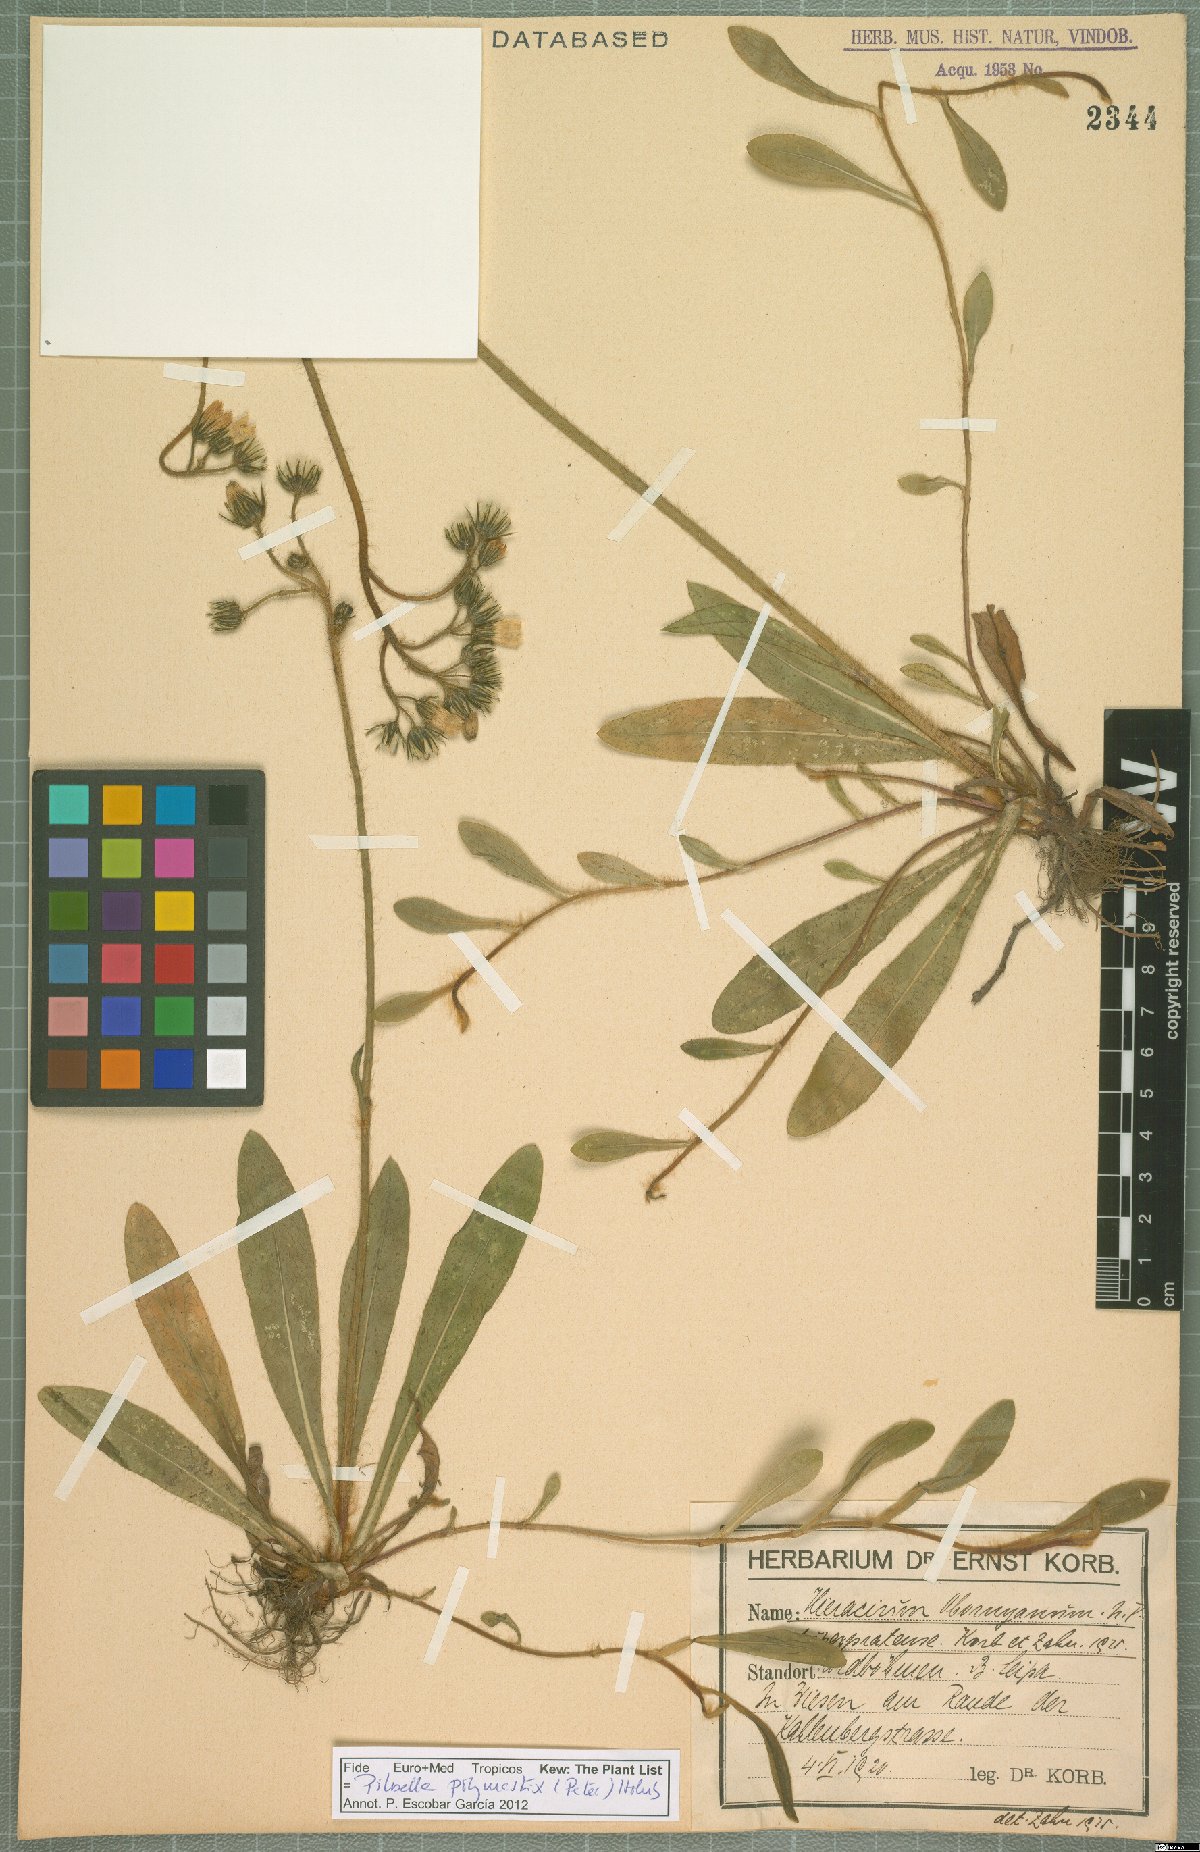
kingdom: Plantae
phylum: Tracheophyta
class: Magnoliopsida
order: Asterales
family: Asteraceae
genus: Pilosella
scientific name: Pilosella polymastix
